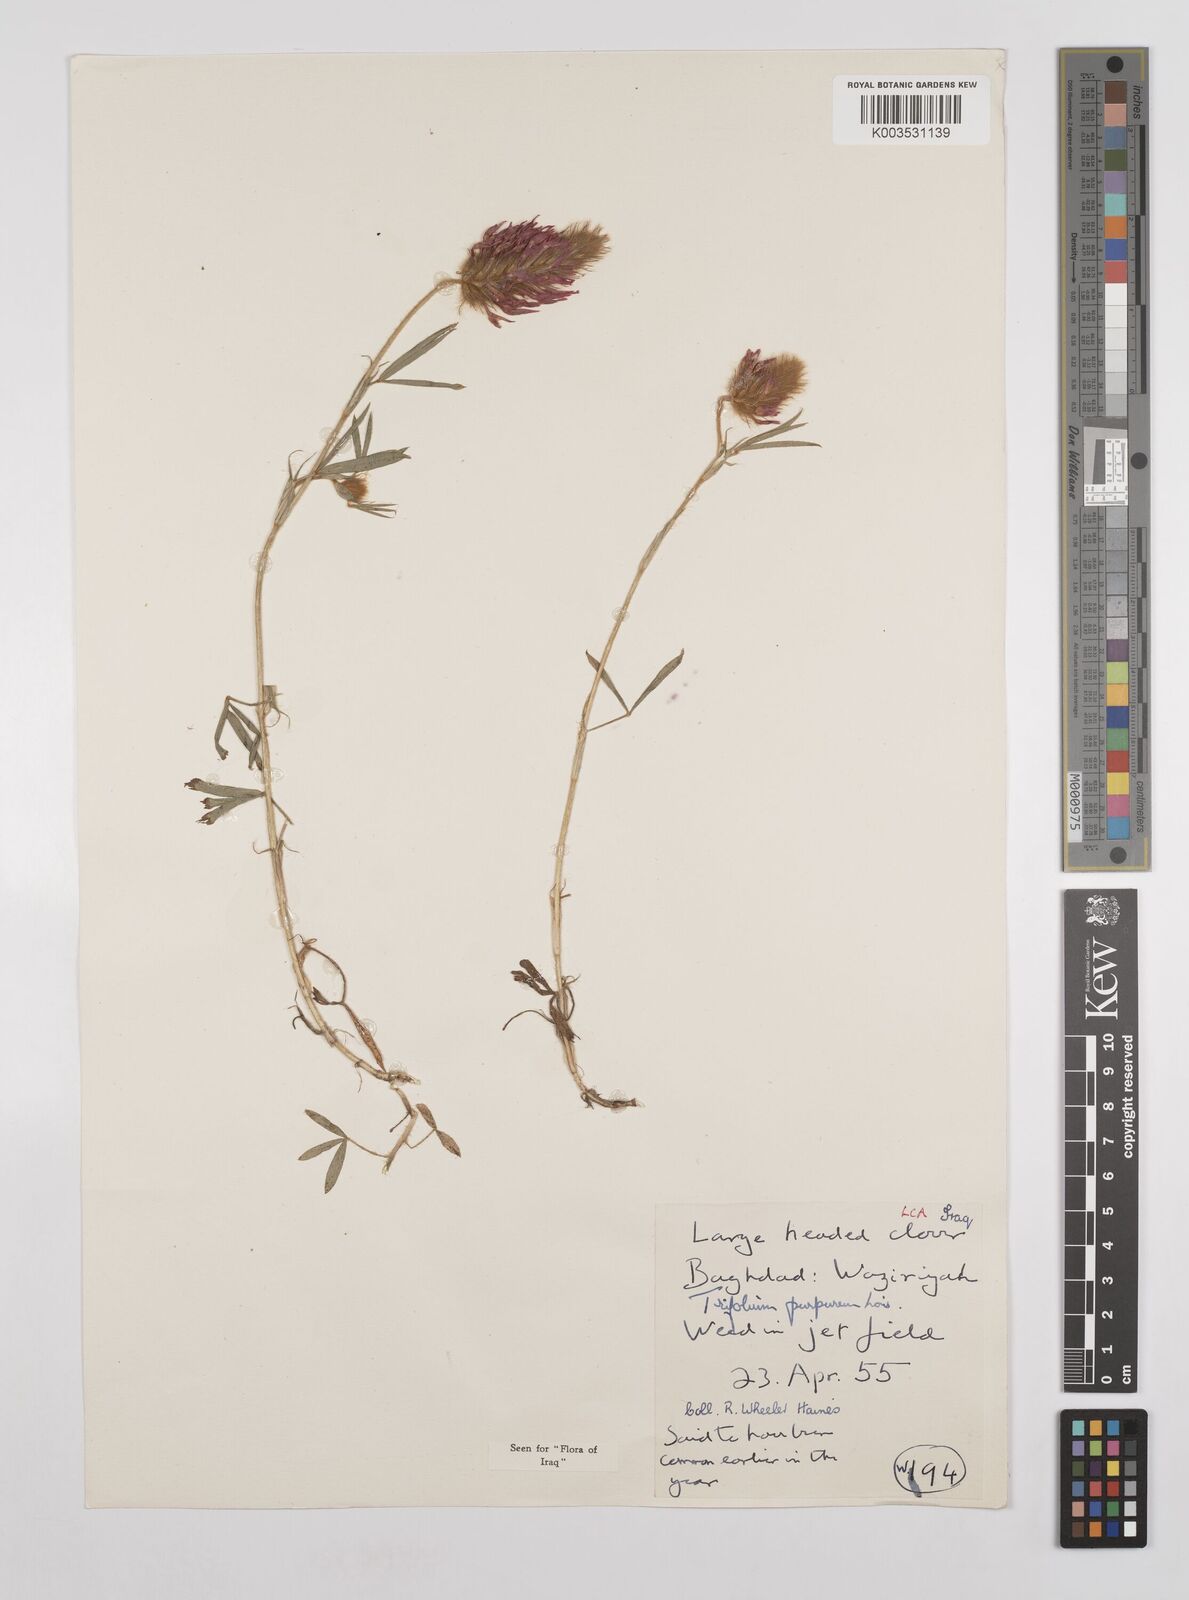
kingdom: Plantae
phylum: Tracheophyta
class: Magnoliopsida
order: Fabales
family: Fabaceae
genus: Trifolium
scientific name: Trifolium purpureum
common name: Purple clover
